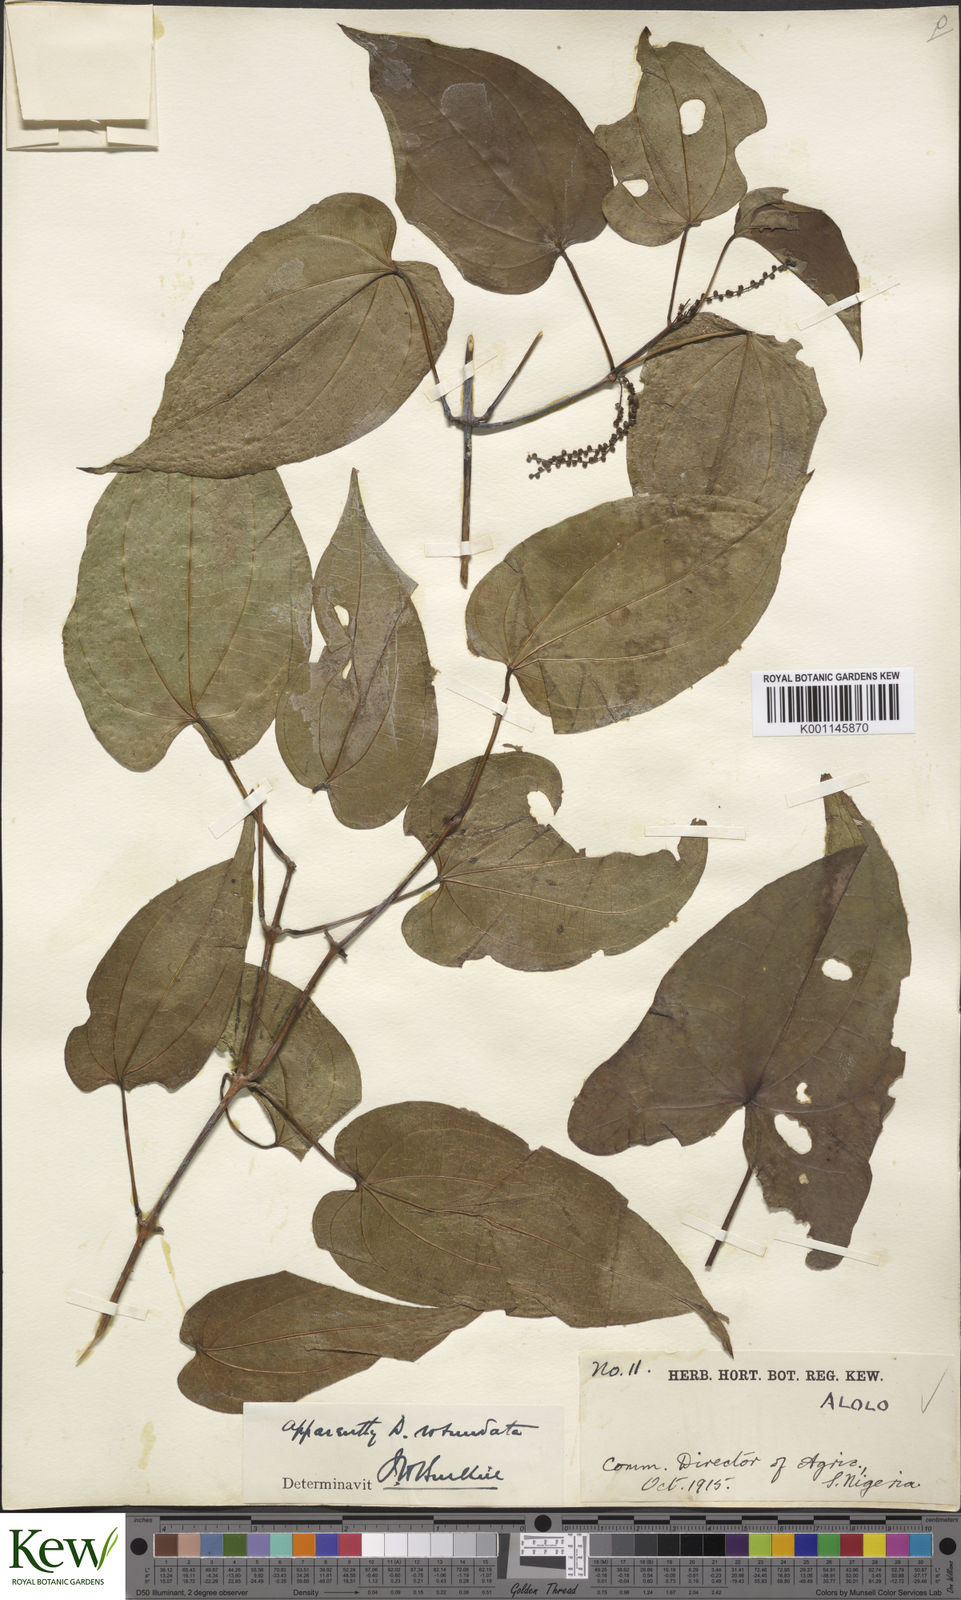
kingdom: Plantae
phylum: Tracheophyta
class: Liliopsida
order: Dioscoreales
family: Dioscoreaceae
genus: Dioscorea
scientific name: Dioscorea cayenensis
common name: Attoto yam
